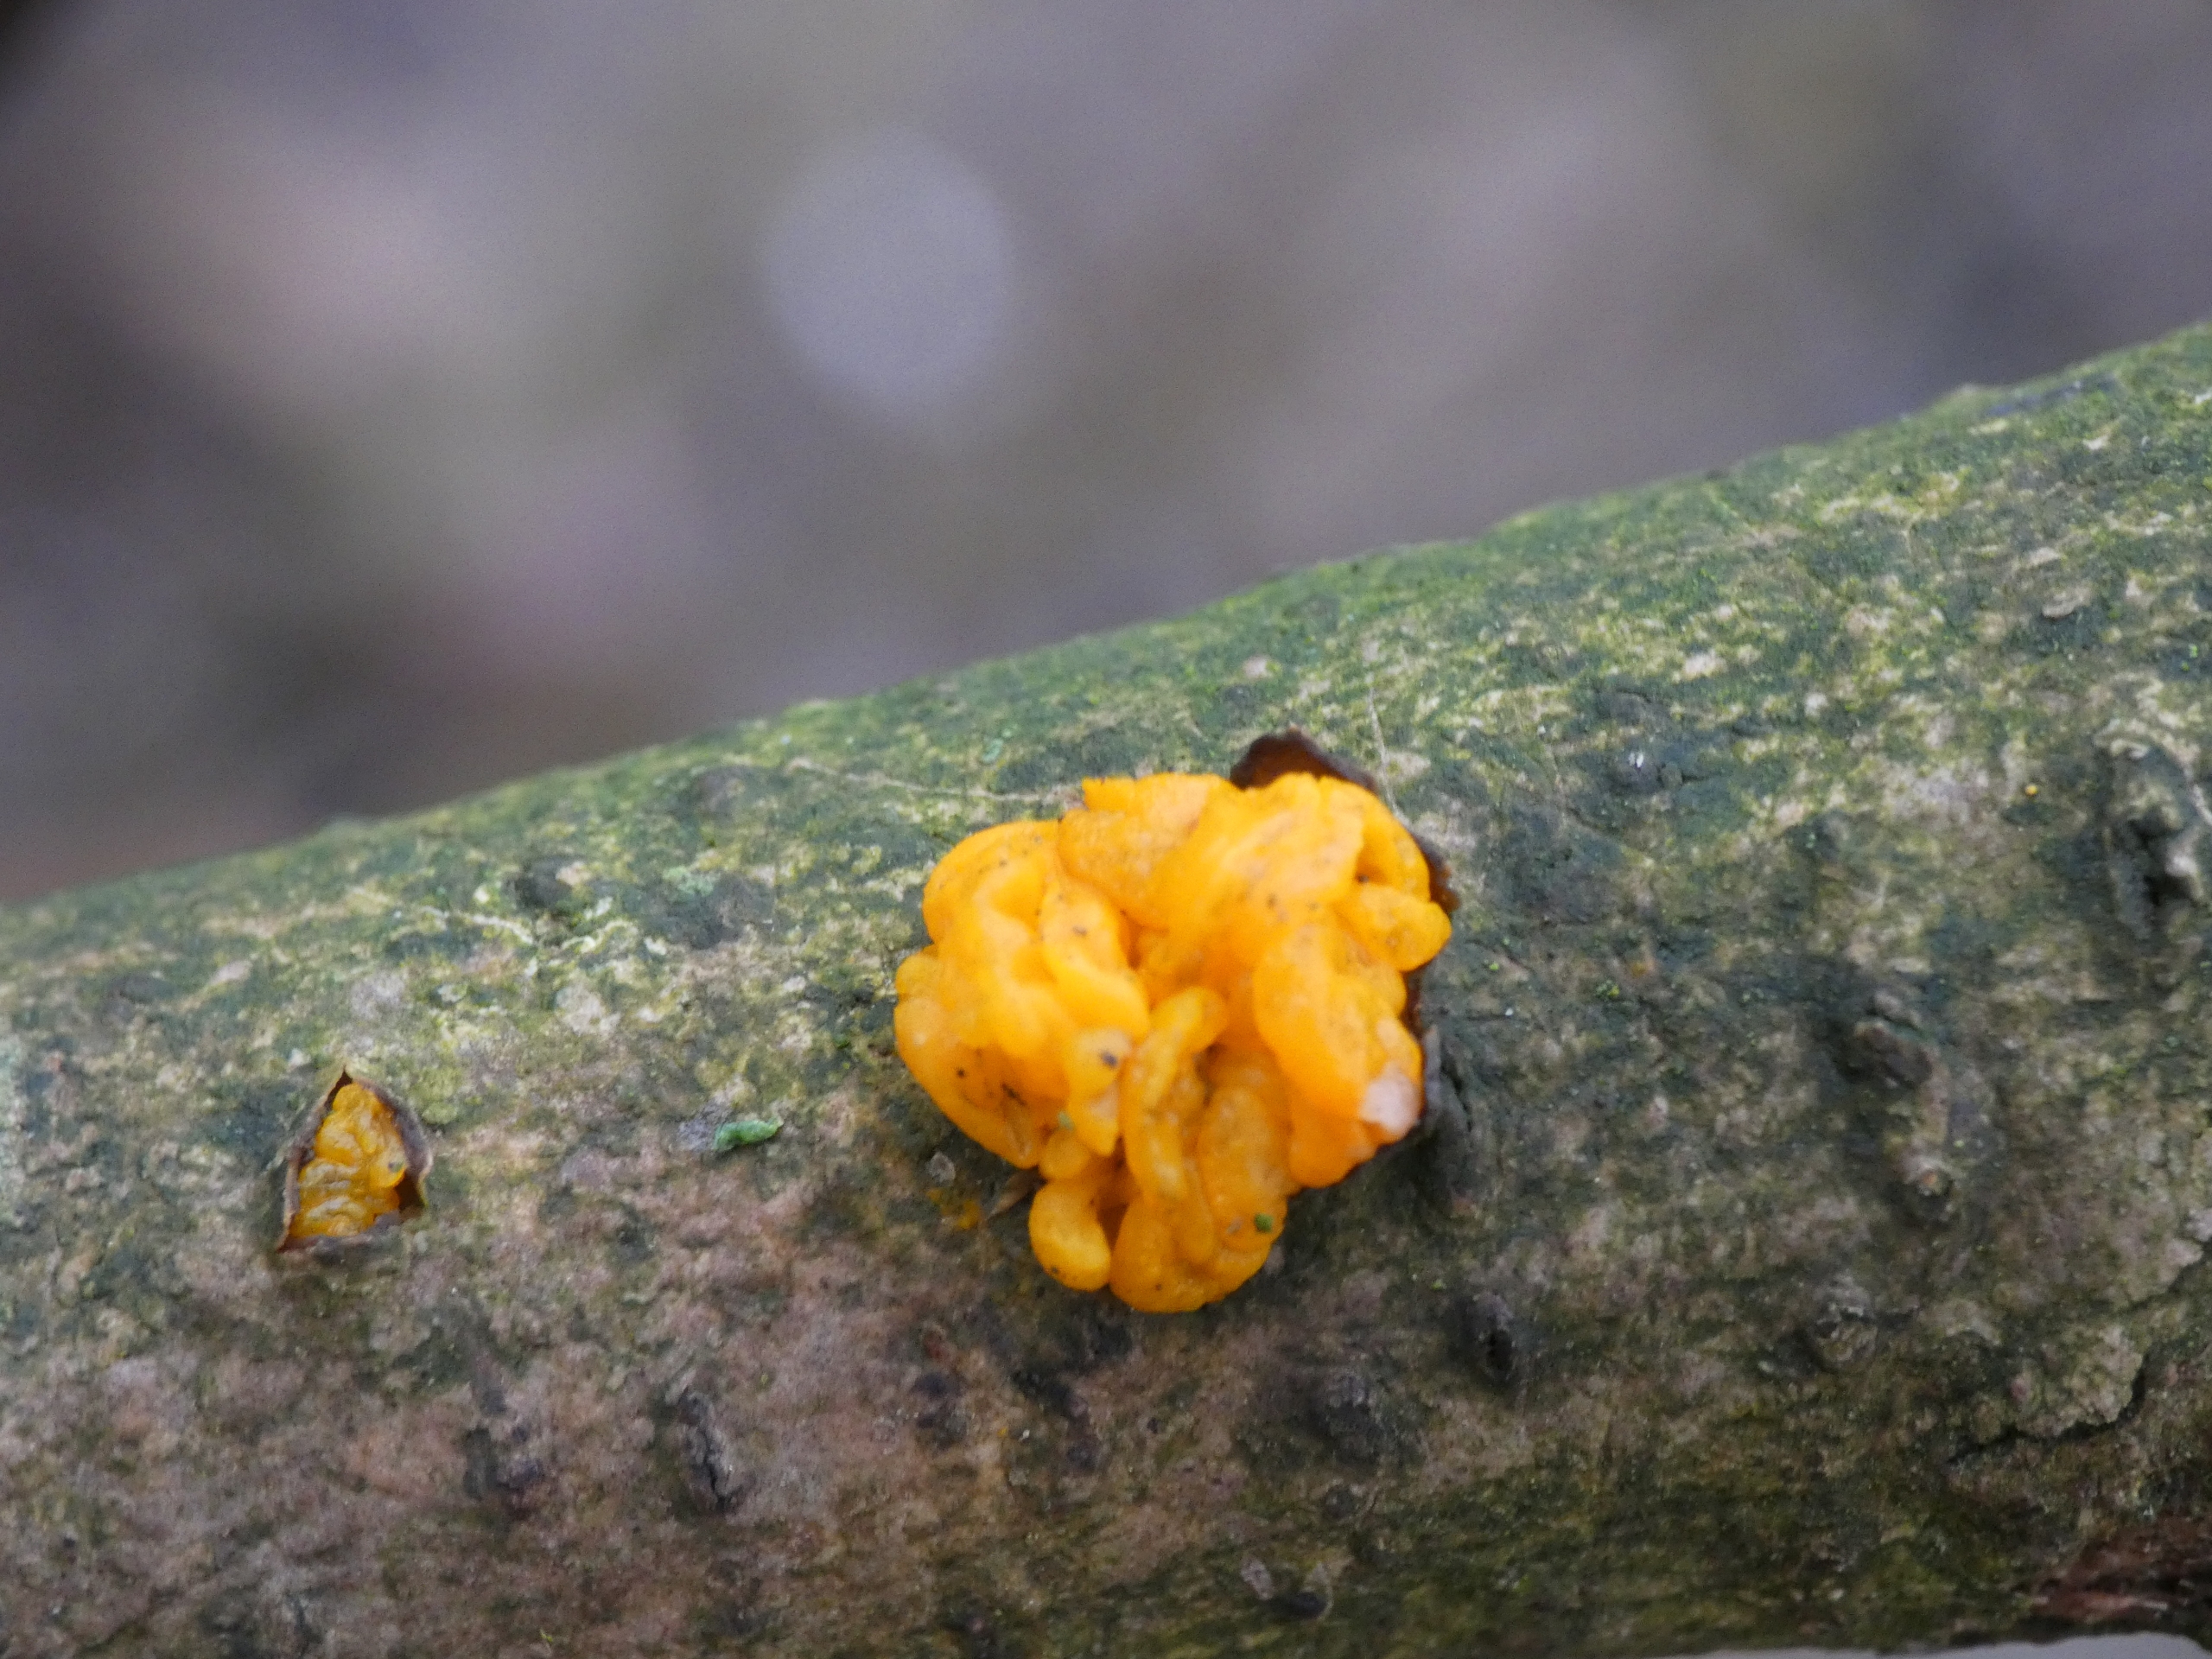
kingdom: Fungi
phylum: Basidiomycota
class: Tremellomycetes
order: Tremellales
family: Tremellaceae
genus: Tremella
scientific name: Tremella mesenterica
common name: Gul bævresvamp
